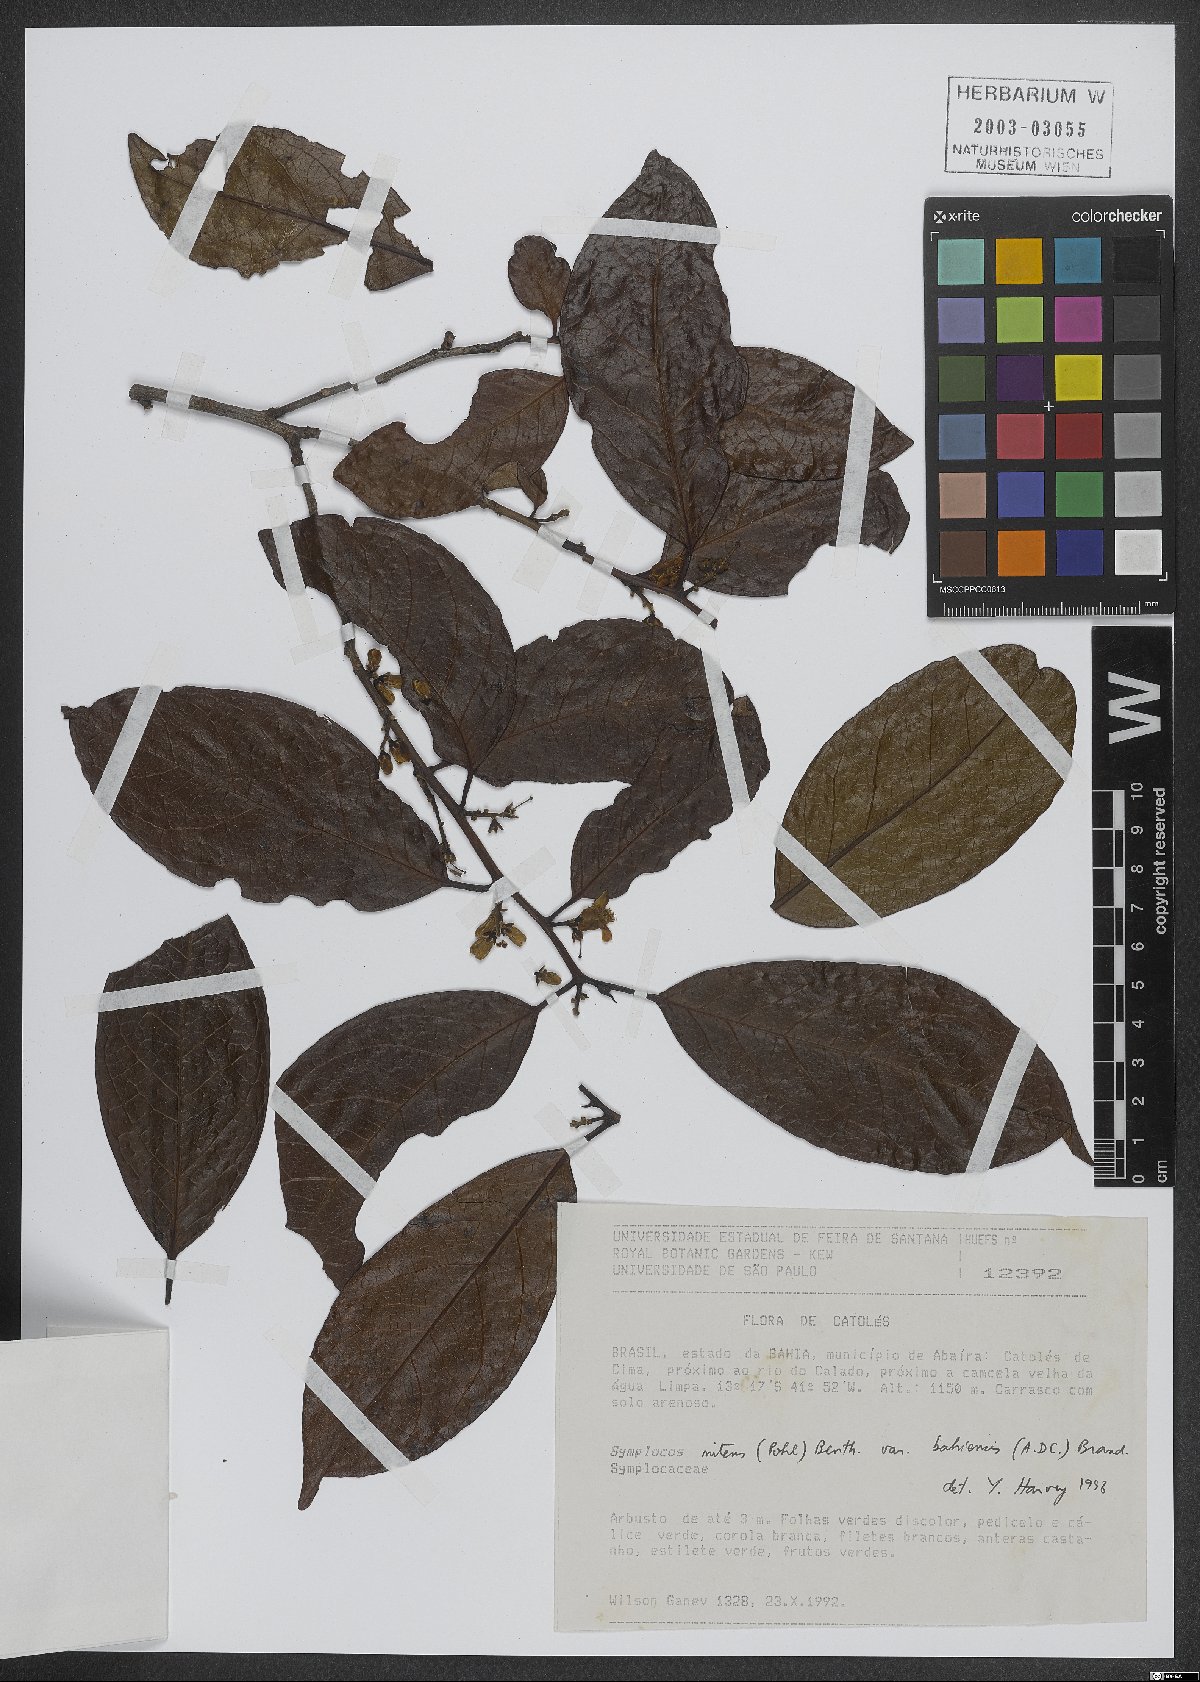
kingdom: Plantae
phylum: Tracheophyta
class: Magnoliopsida
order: Ericales
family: Symplocaceae
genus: Symplocos
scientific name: Symplocos nitens
